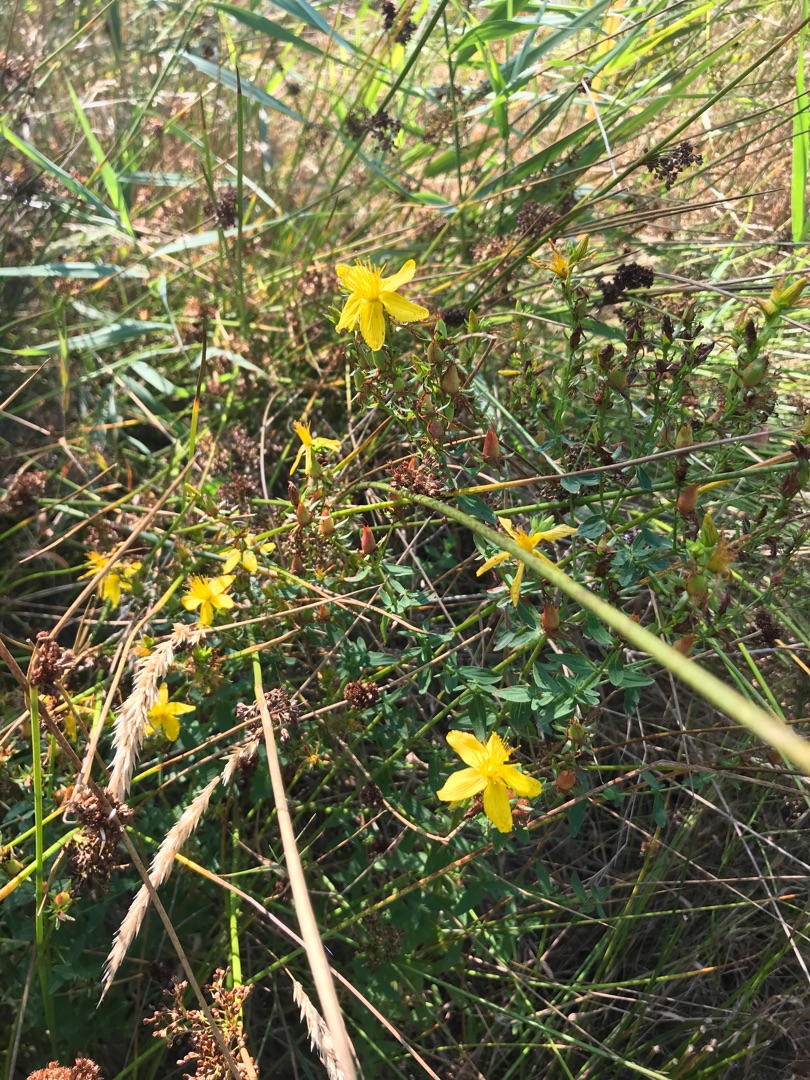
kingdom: Plantae
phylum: Tracheophyta
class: Magnoliopsida
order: Malpighiales
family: Hypericaceae
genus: Hypericum
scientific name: Hypericum perforatum
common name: Prikbladet perikon
